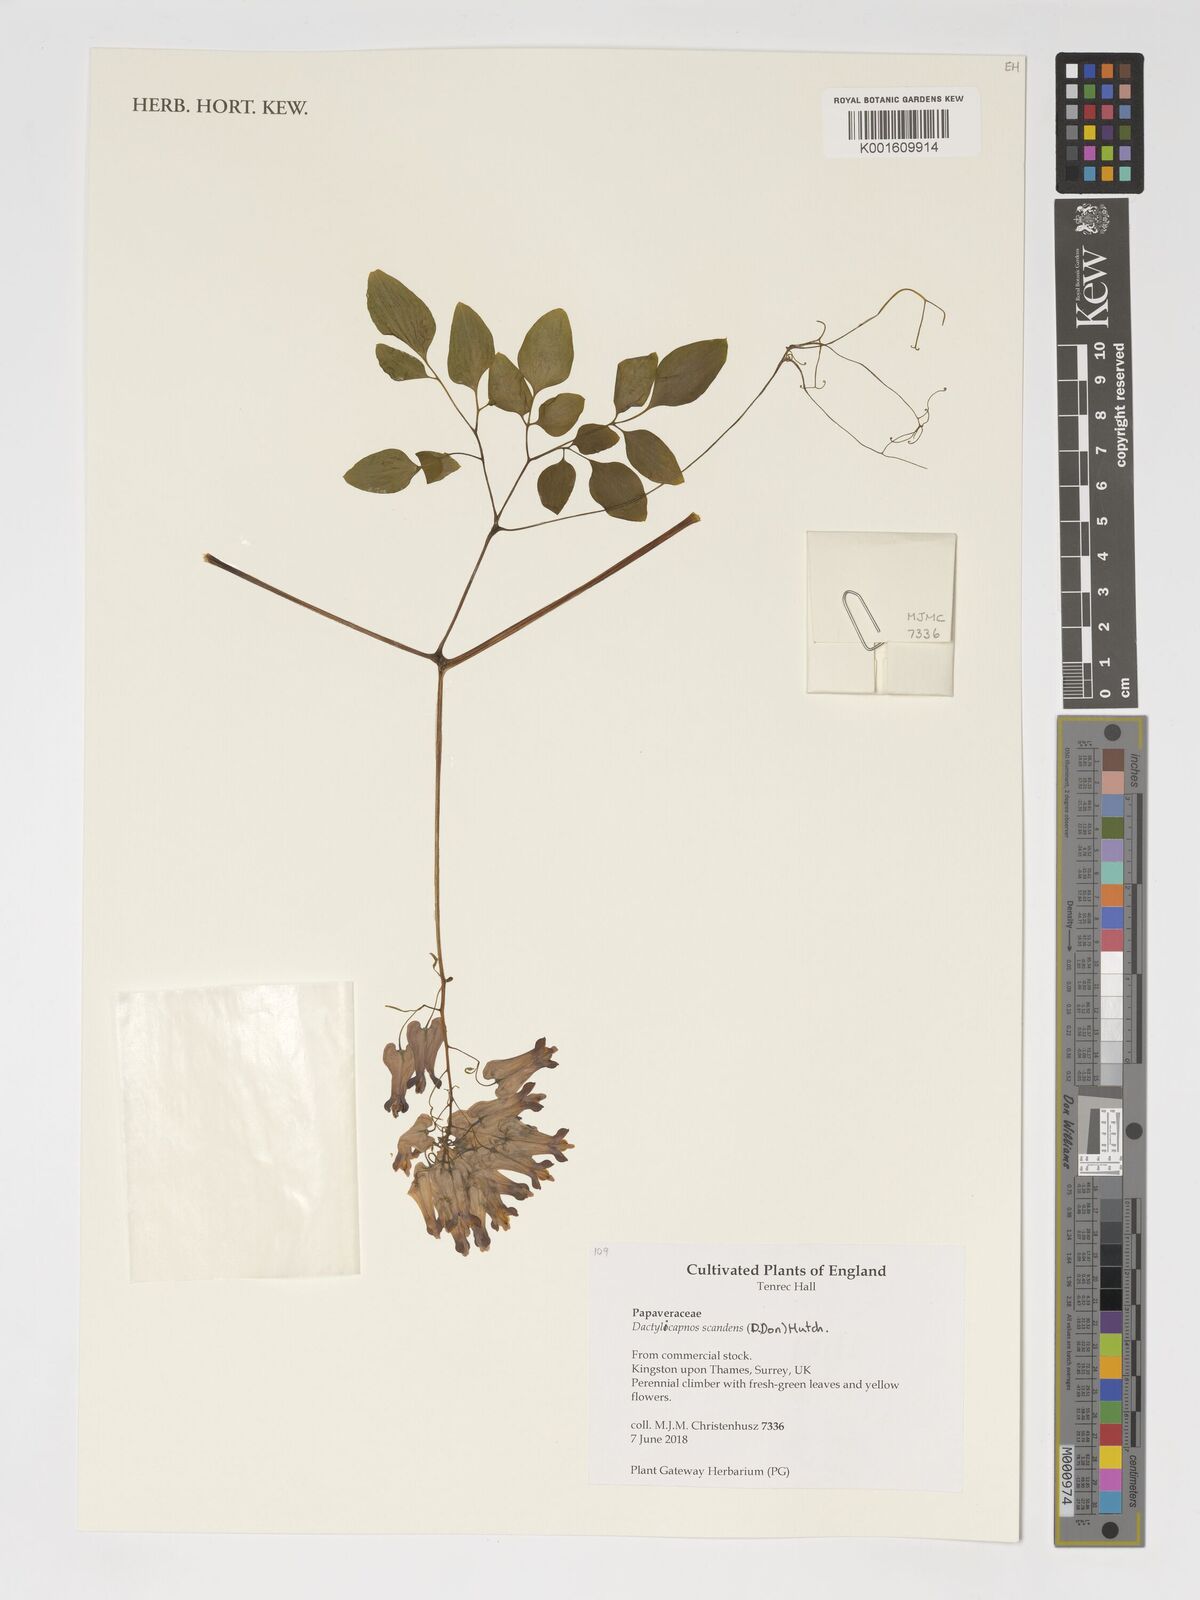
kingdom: Plantae
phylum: Tracheophyta
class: Magnoliopsida
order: Ranunculales
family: Papaveraceae
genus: Dactylicapnos
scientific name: Dactylicapnos scandens
